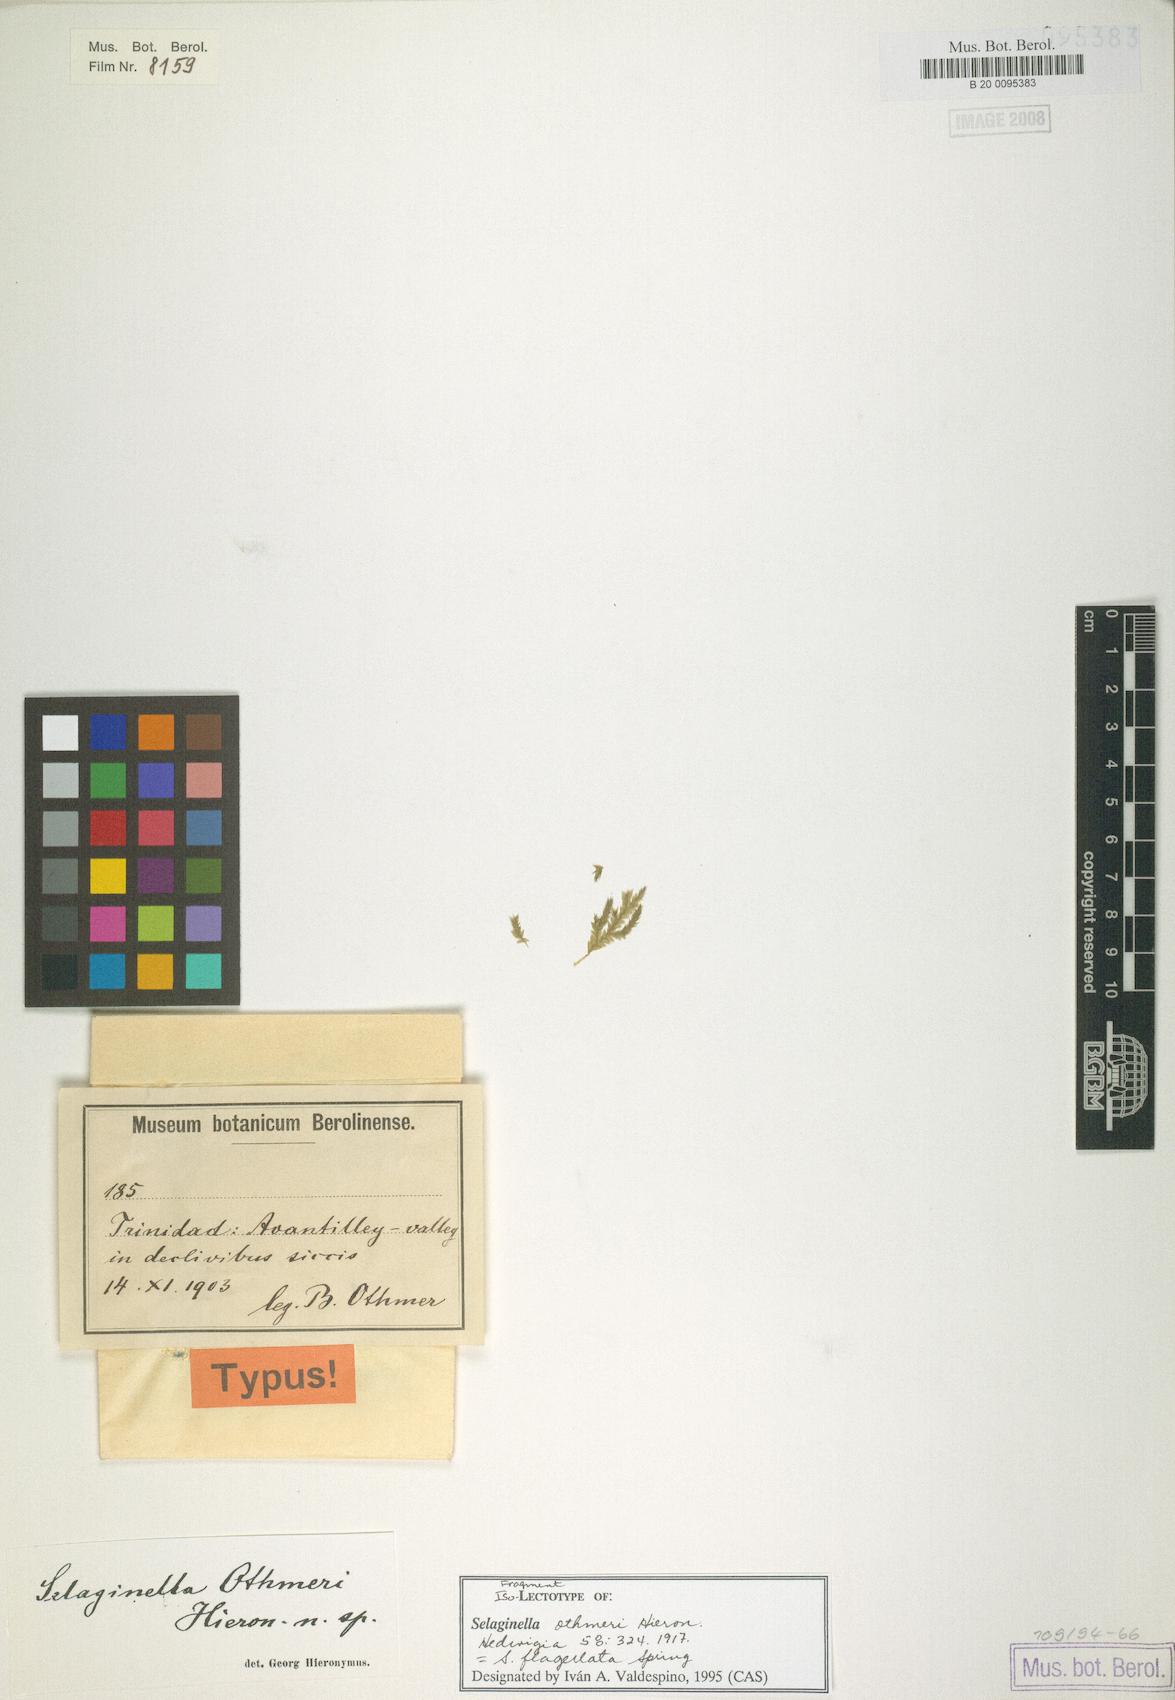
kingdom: Plantae
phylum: Tracheophyta
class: Lycopodiopsida
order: Selaginellales
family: Selaginellaceae
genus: Selaginella
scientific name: Selaginella flagellata
